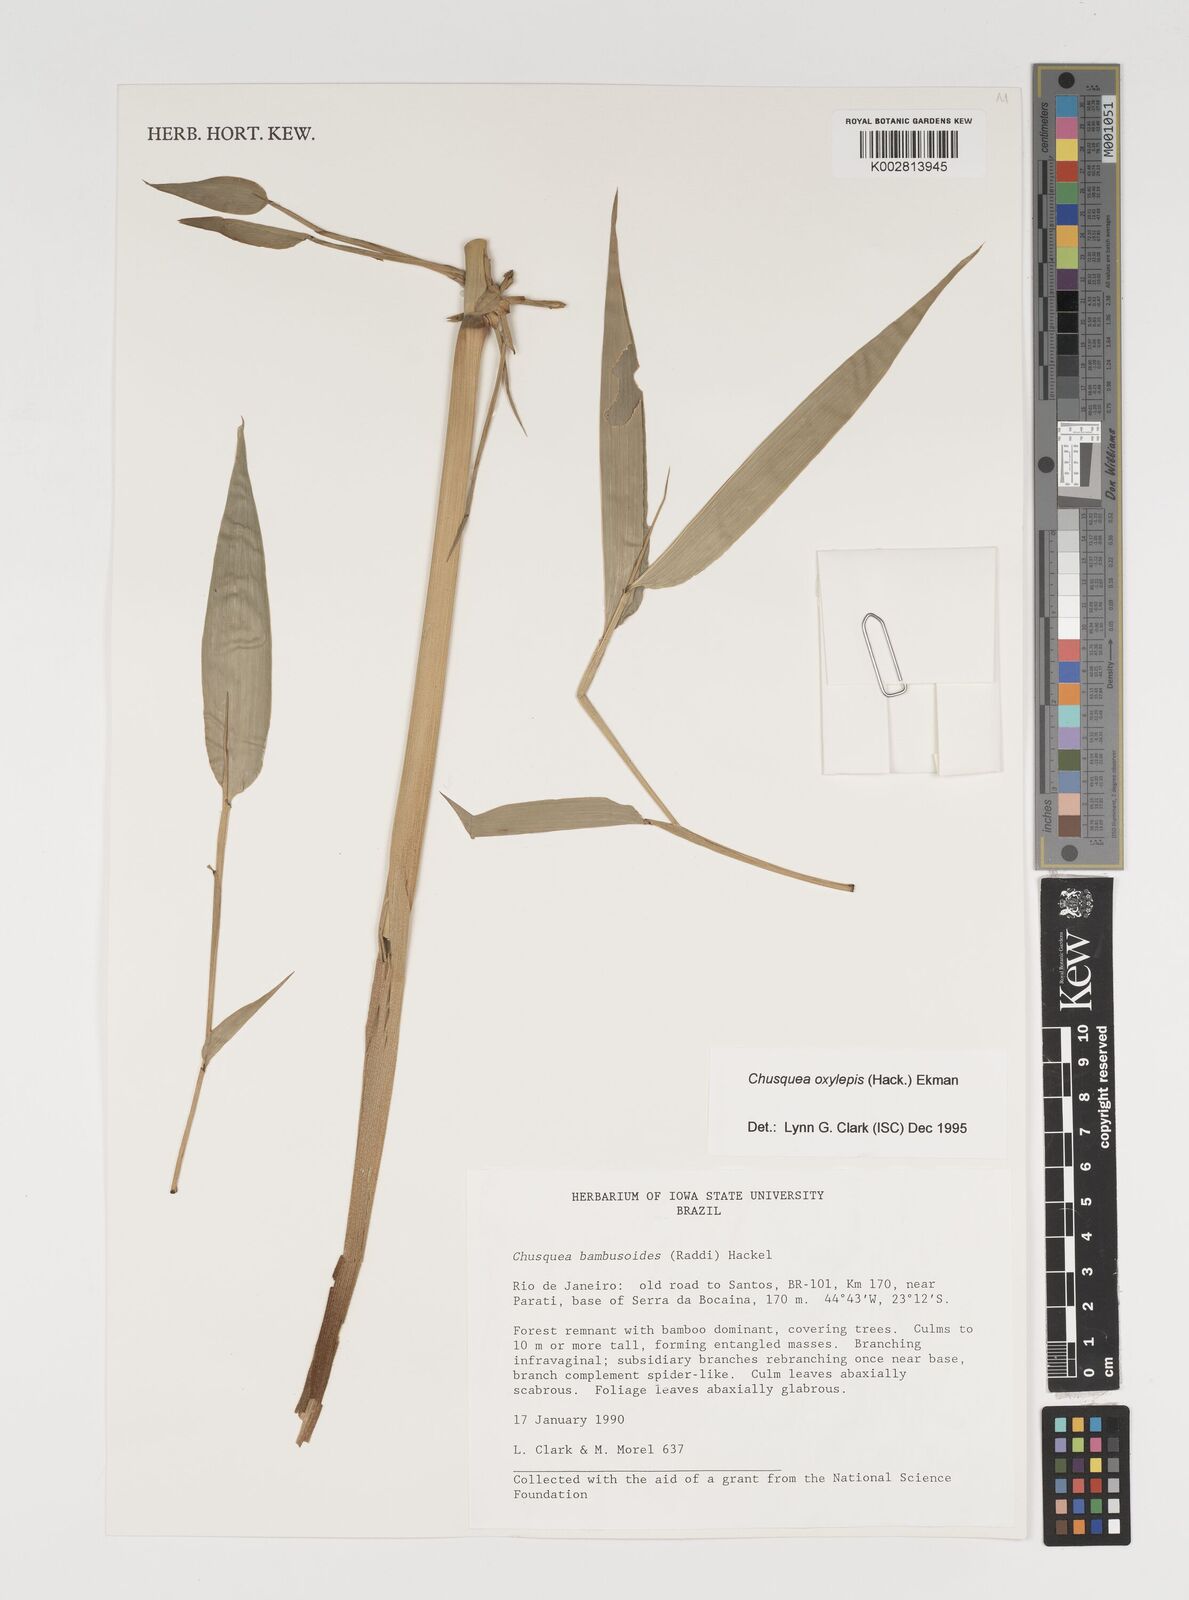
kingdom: Plantae
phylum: Tracheophyta
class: Liliopsida
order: Poales
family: Poaceae
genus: Chusquea
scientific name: Chusquea oxylepis
